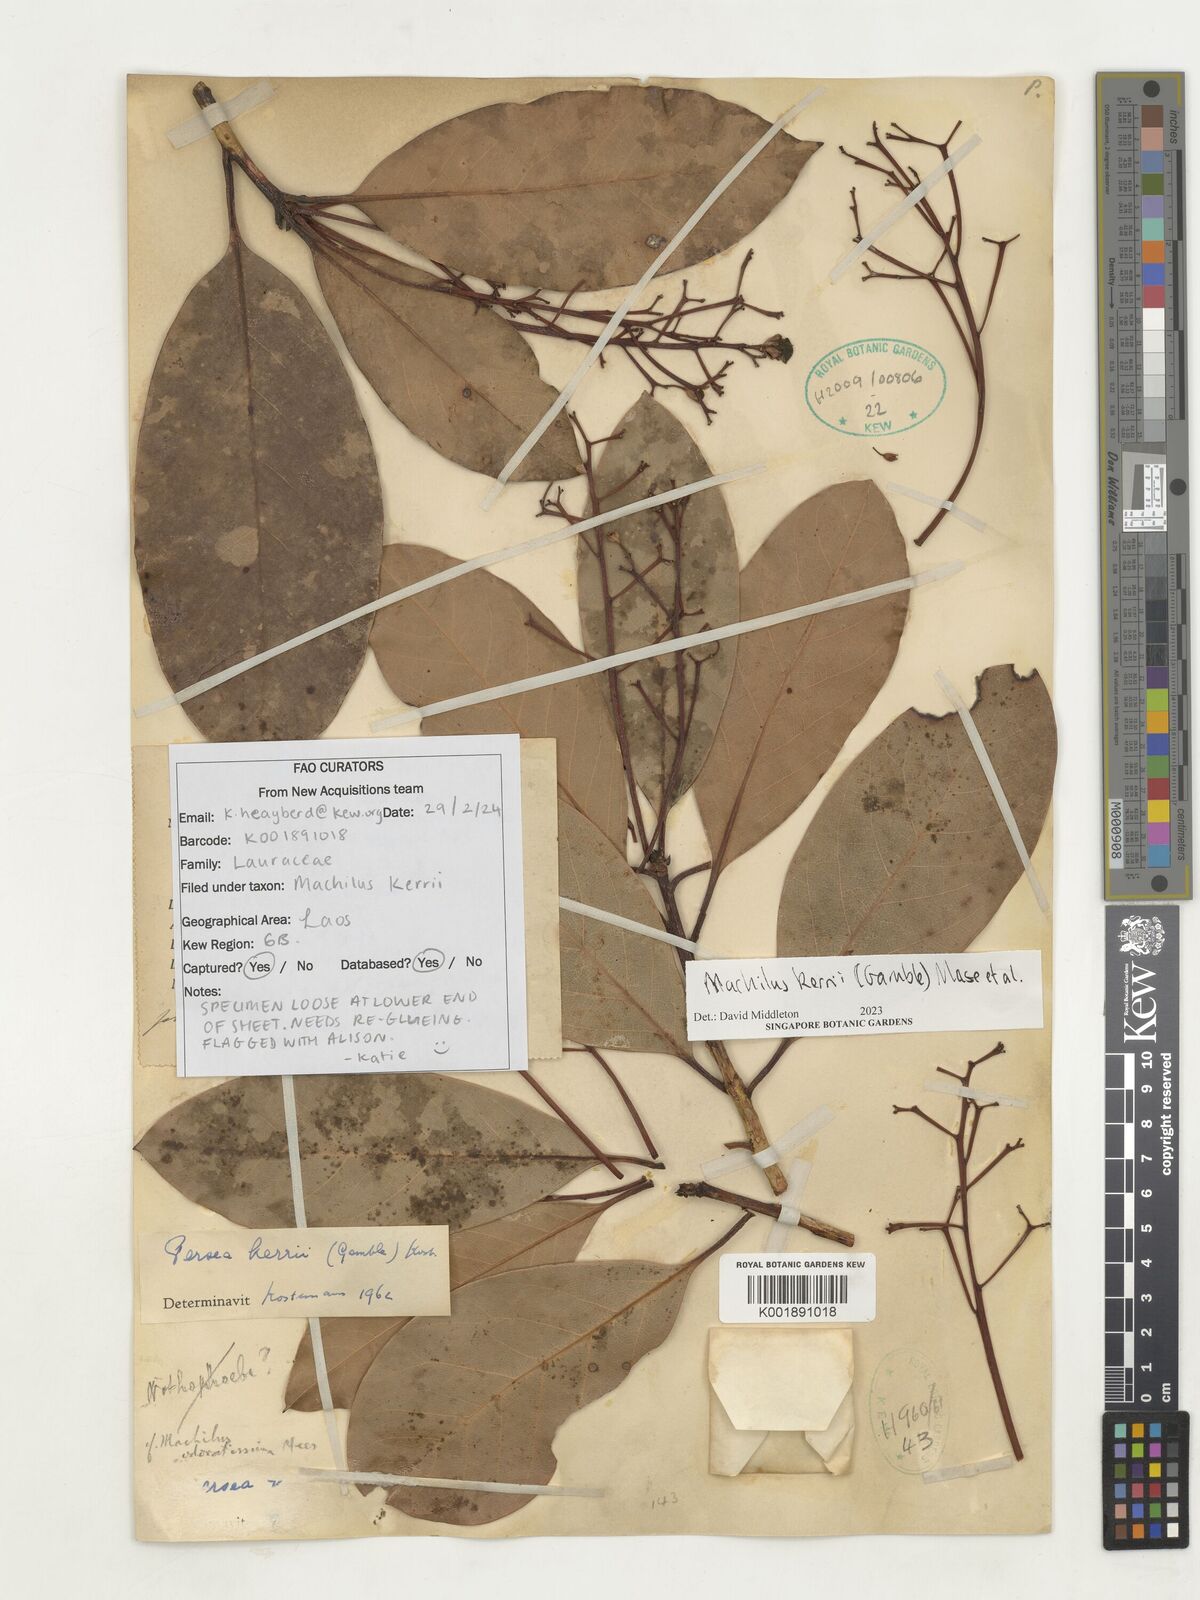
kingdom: Plantae
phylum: Tracheophyta
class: Magnoliopsida
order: Laurales
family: Lauraceae
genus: Machilus
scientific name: Machilus
